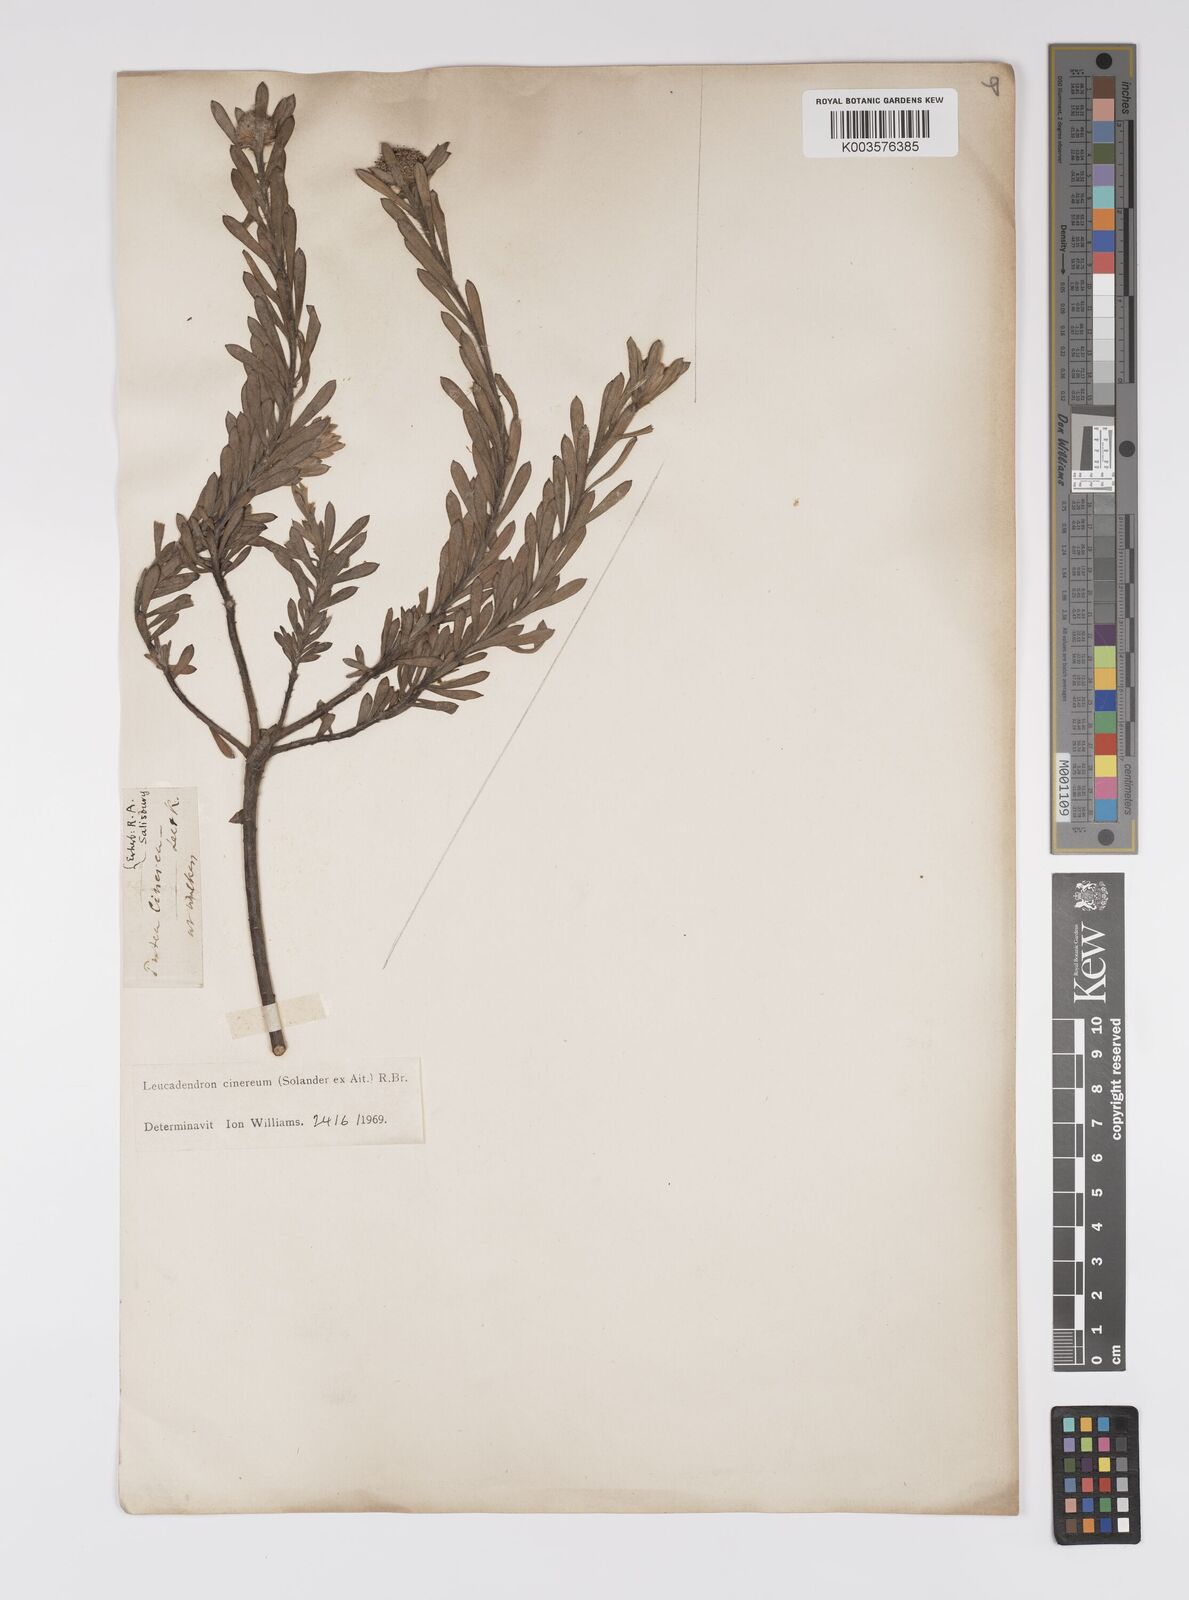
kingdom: Plantae
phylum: Tracheophyta
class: Magnoliopsida
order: Proteales
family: Proteaceae
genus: Leucadendron
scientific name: Leucadendron cinereum
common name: Scraggly conebush
